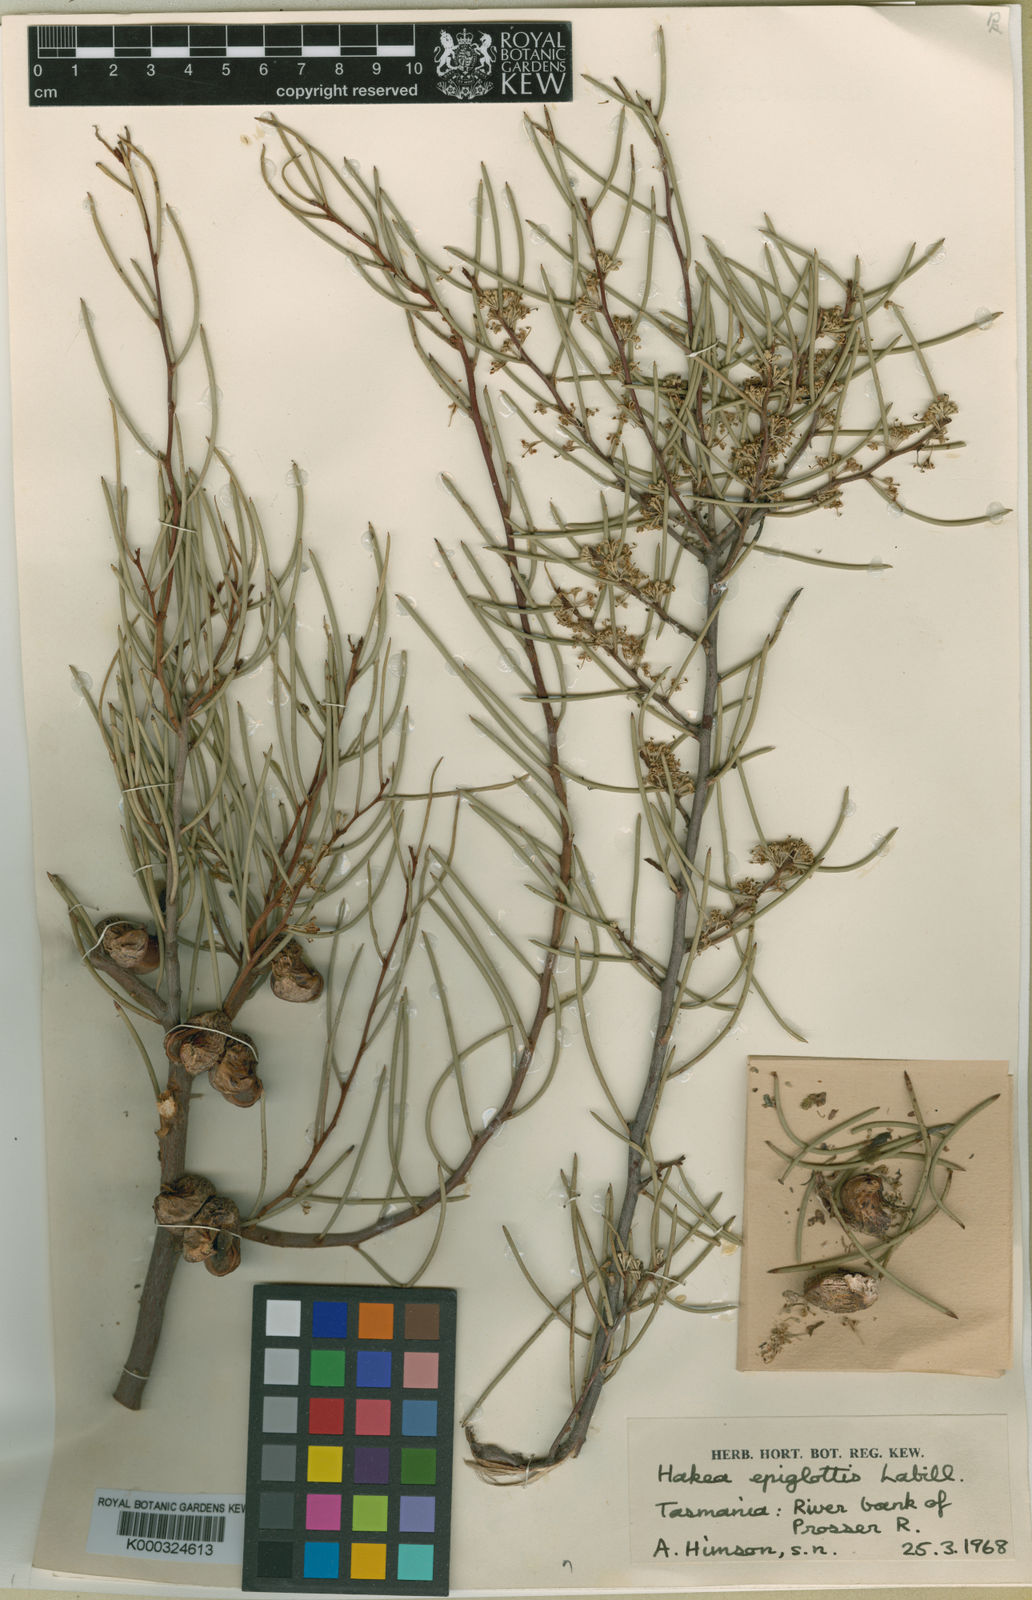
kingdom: Plantae
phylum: Tracheophyta
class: Magnoliopsida
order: Proteales
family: Proteaceae
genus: Hakea
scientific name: Hakea epiglottis
